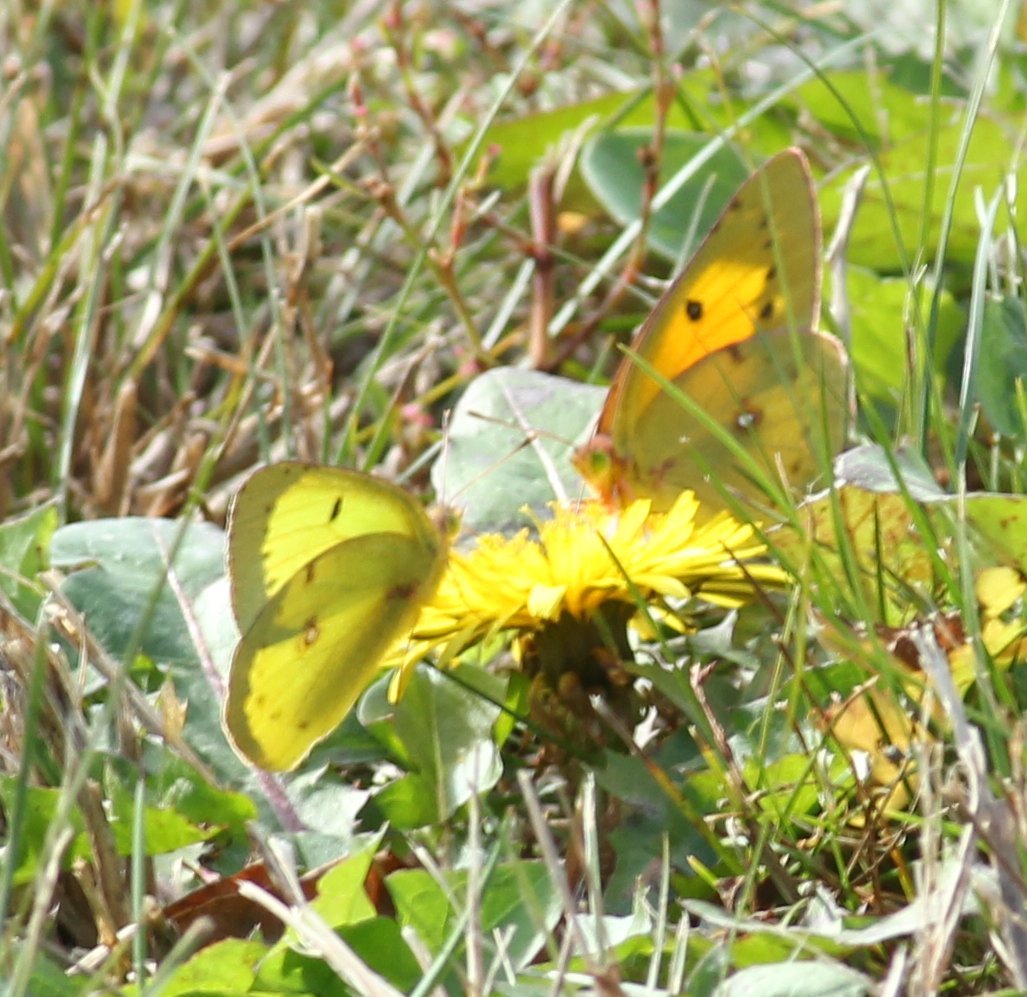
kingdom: Animalia
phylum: Arthropoda
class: Insecta
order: Lepidoptera
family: Pieridae
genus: Colias
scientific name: Colias eurytheme
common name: Orange Sulphur
